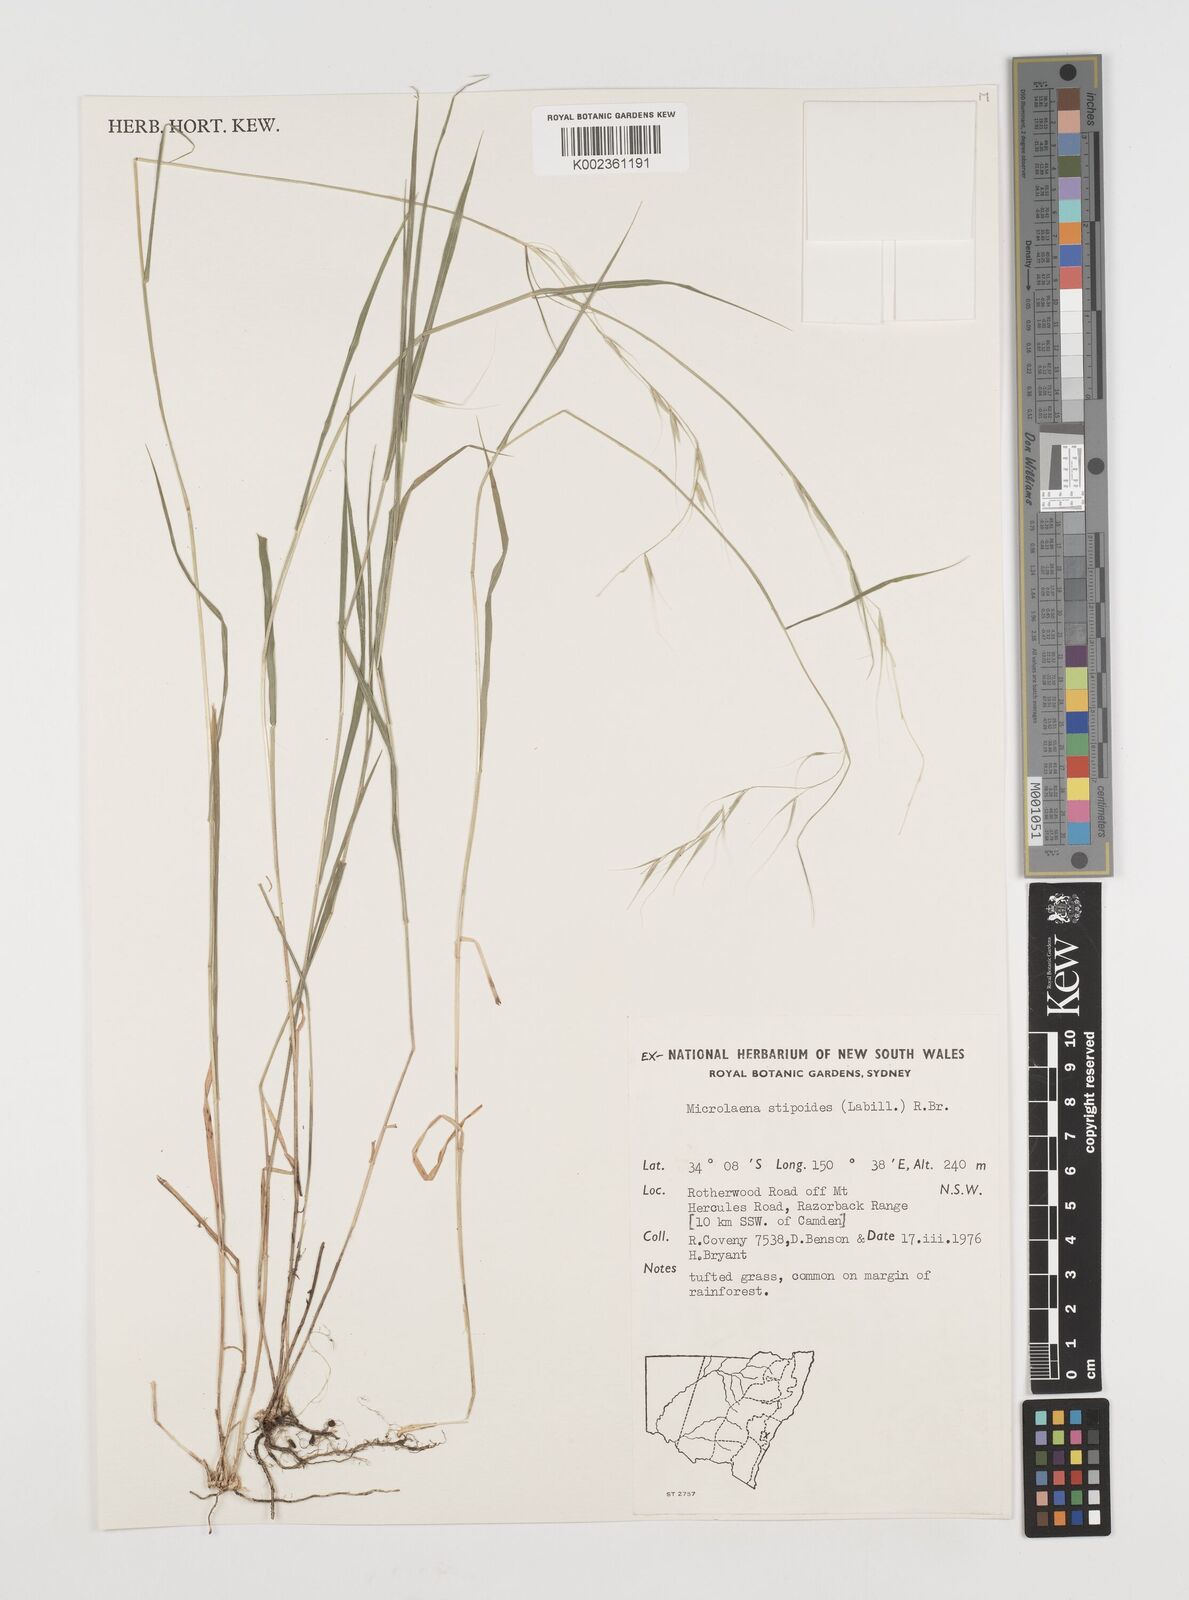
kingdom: Plantae
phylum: Tracheophyta
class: Liliopsida
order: Poales
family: Poaceae
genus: Microlaena
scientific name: Microlaena stipoides
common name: Meadow ricegrass
